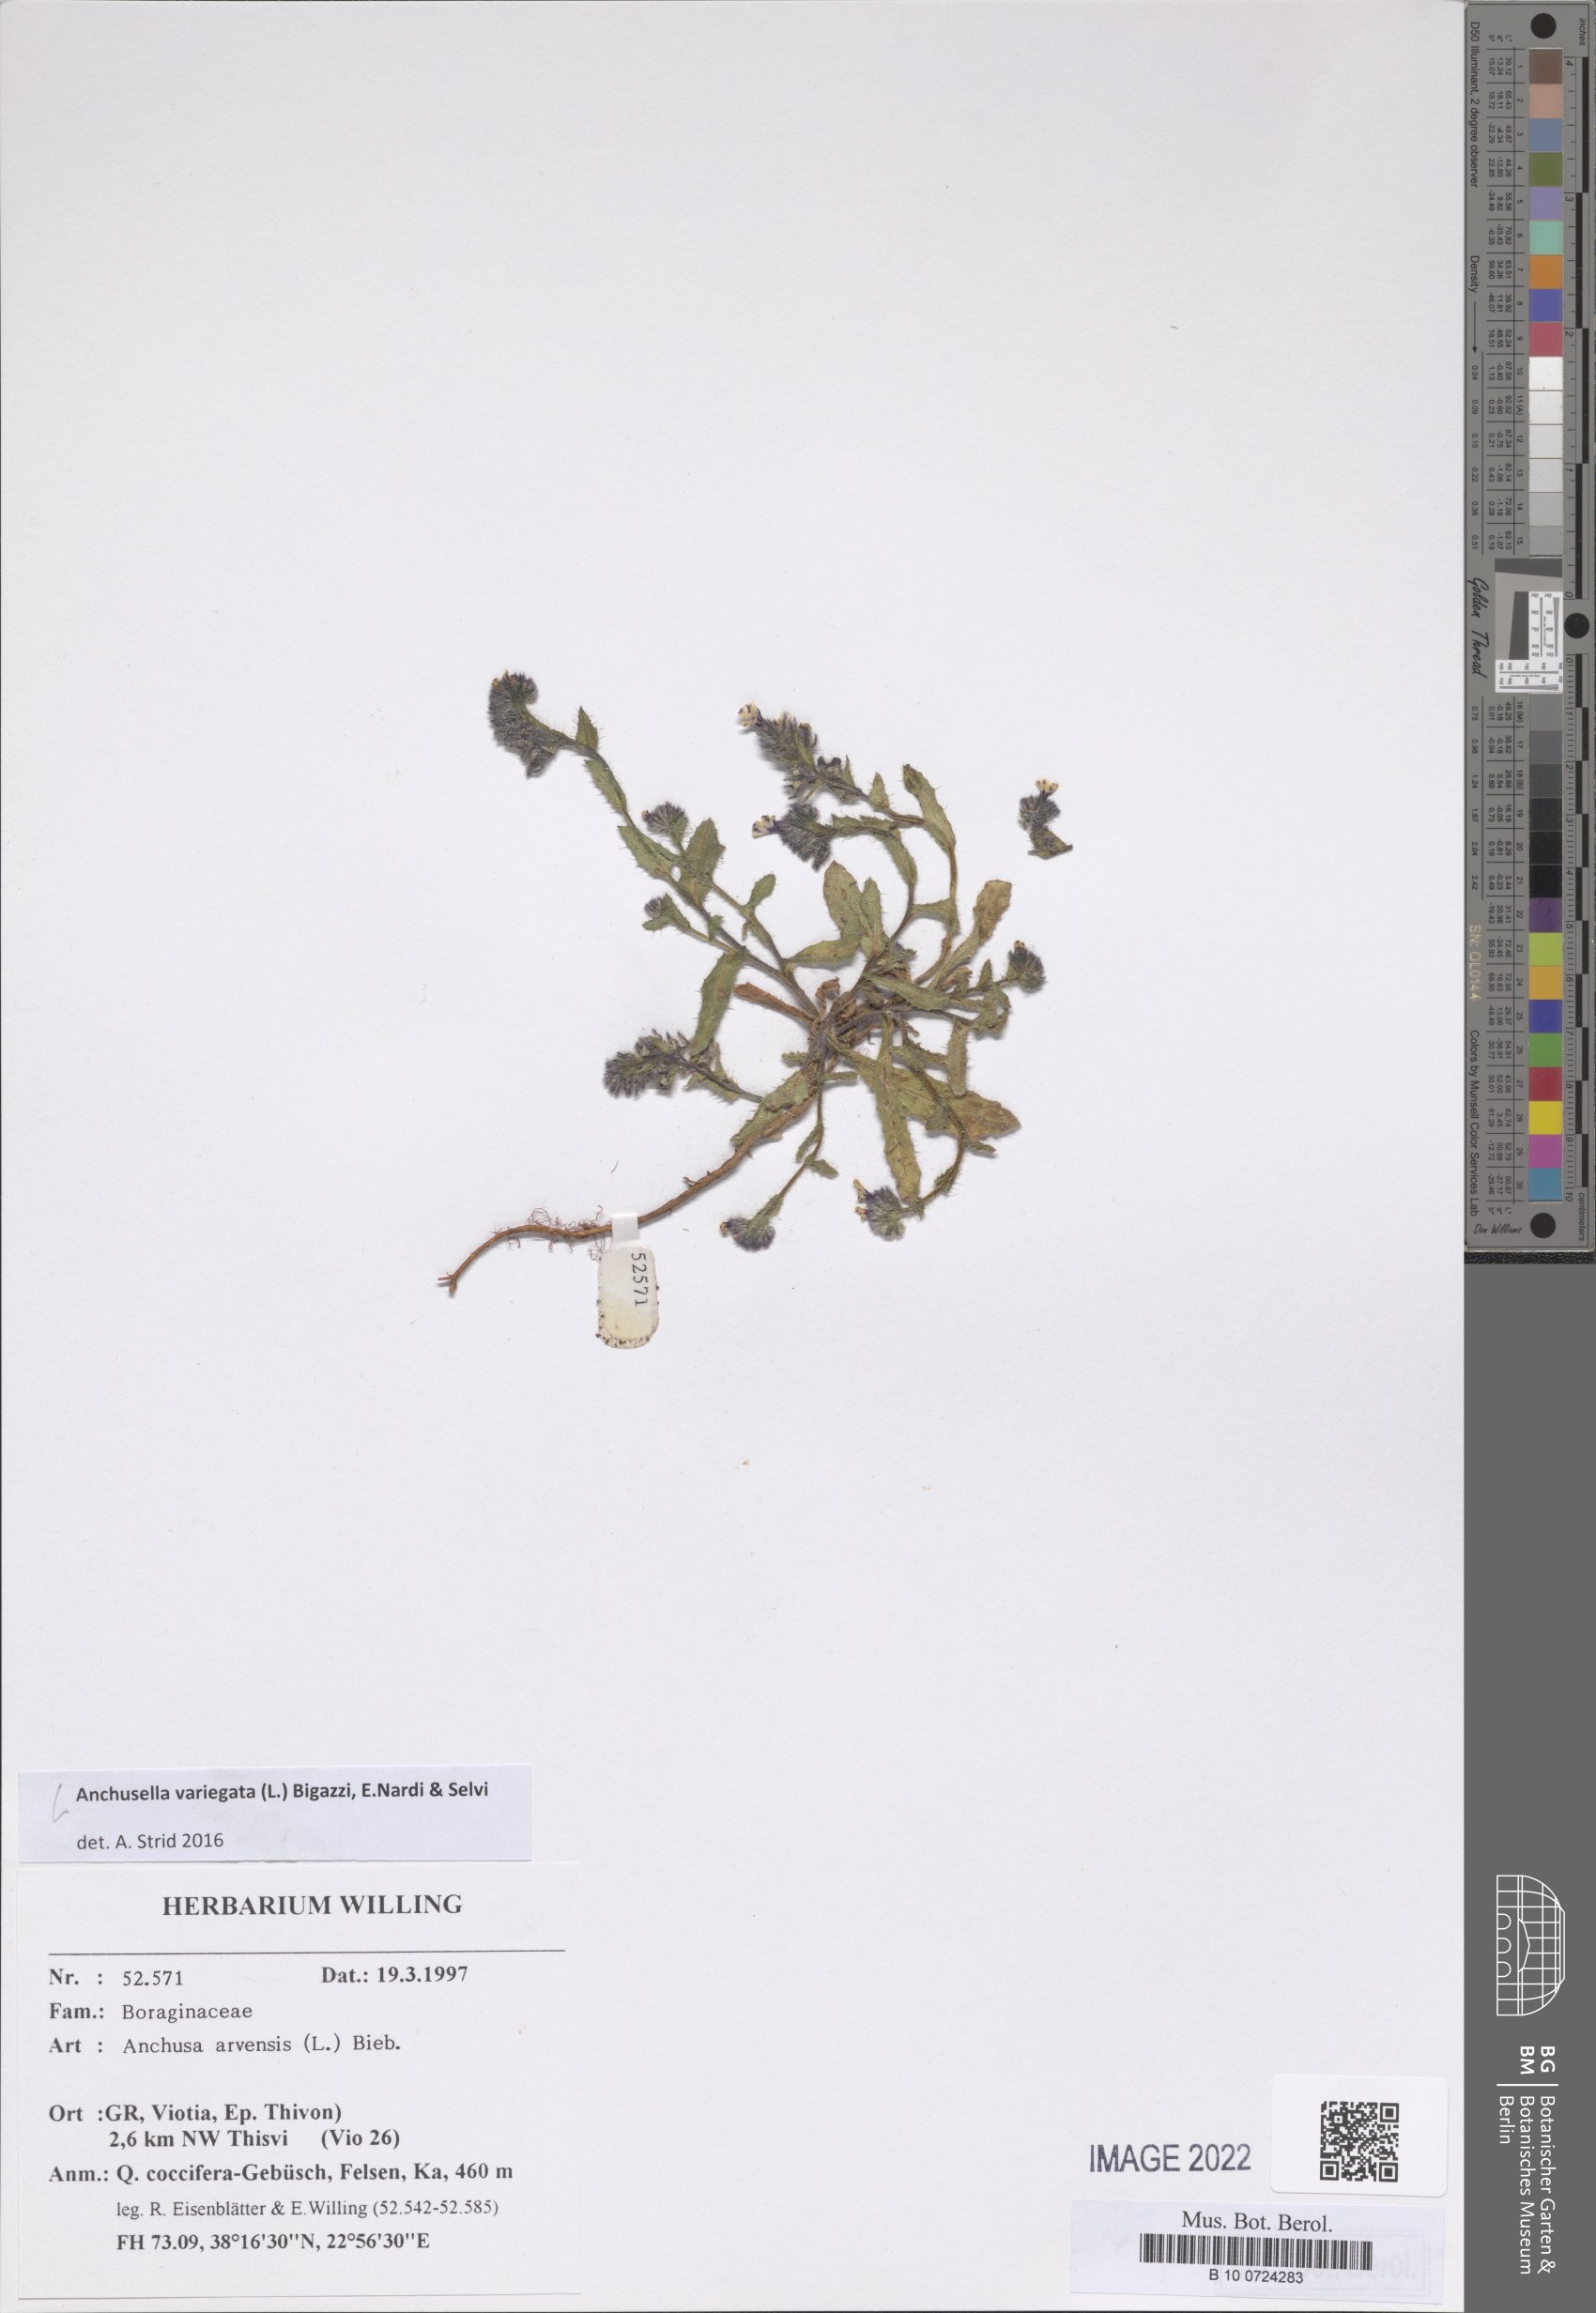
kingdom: Plantae
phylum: Tracheophyta
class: Magnoliopsida
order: Boraginales
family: Boraginaceae
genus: Anchusella
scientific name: Anchusella variegata
